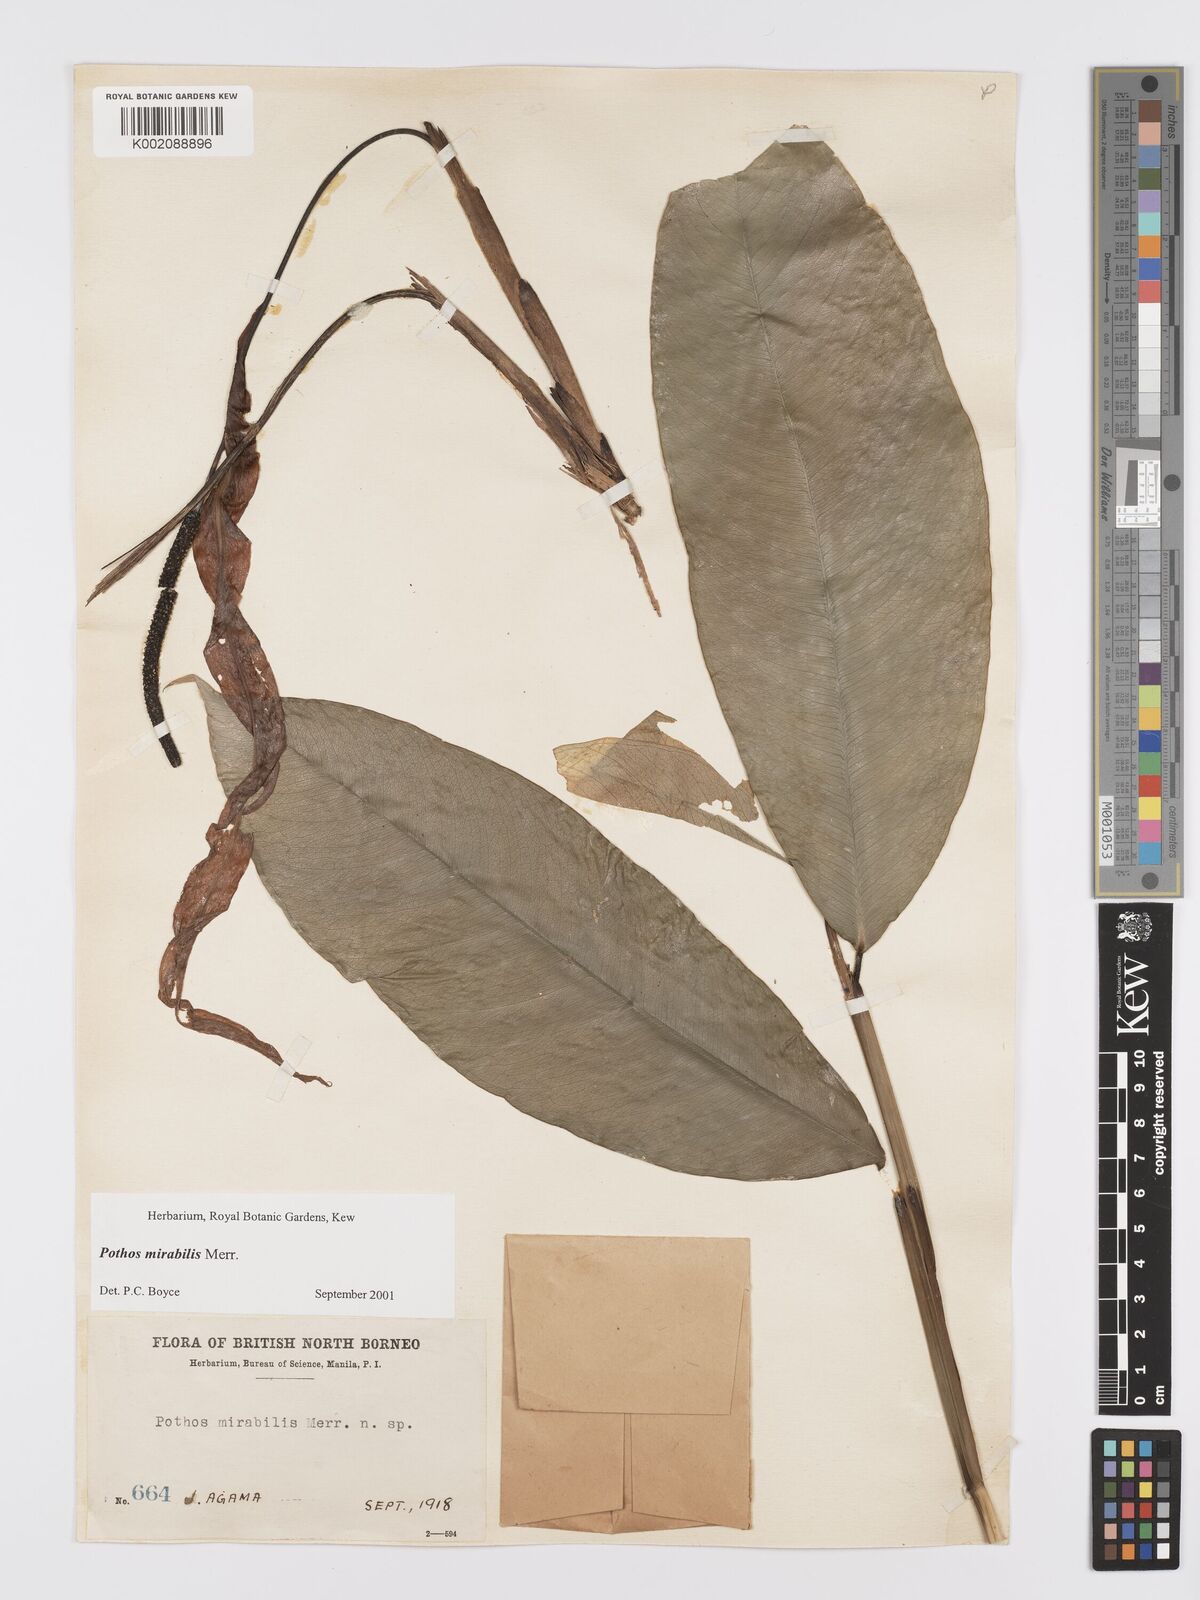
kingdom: Plantae
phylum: Tracheophyta
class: Liliopsida
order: Alismatales
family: Araceae
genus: Pothos
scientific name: Pothos mirabilis
